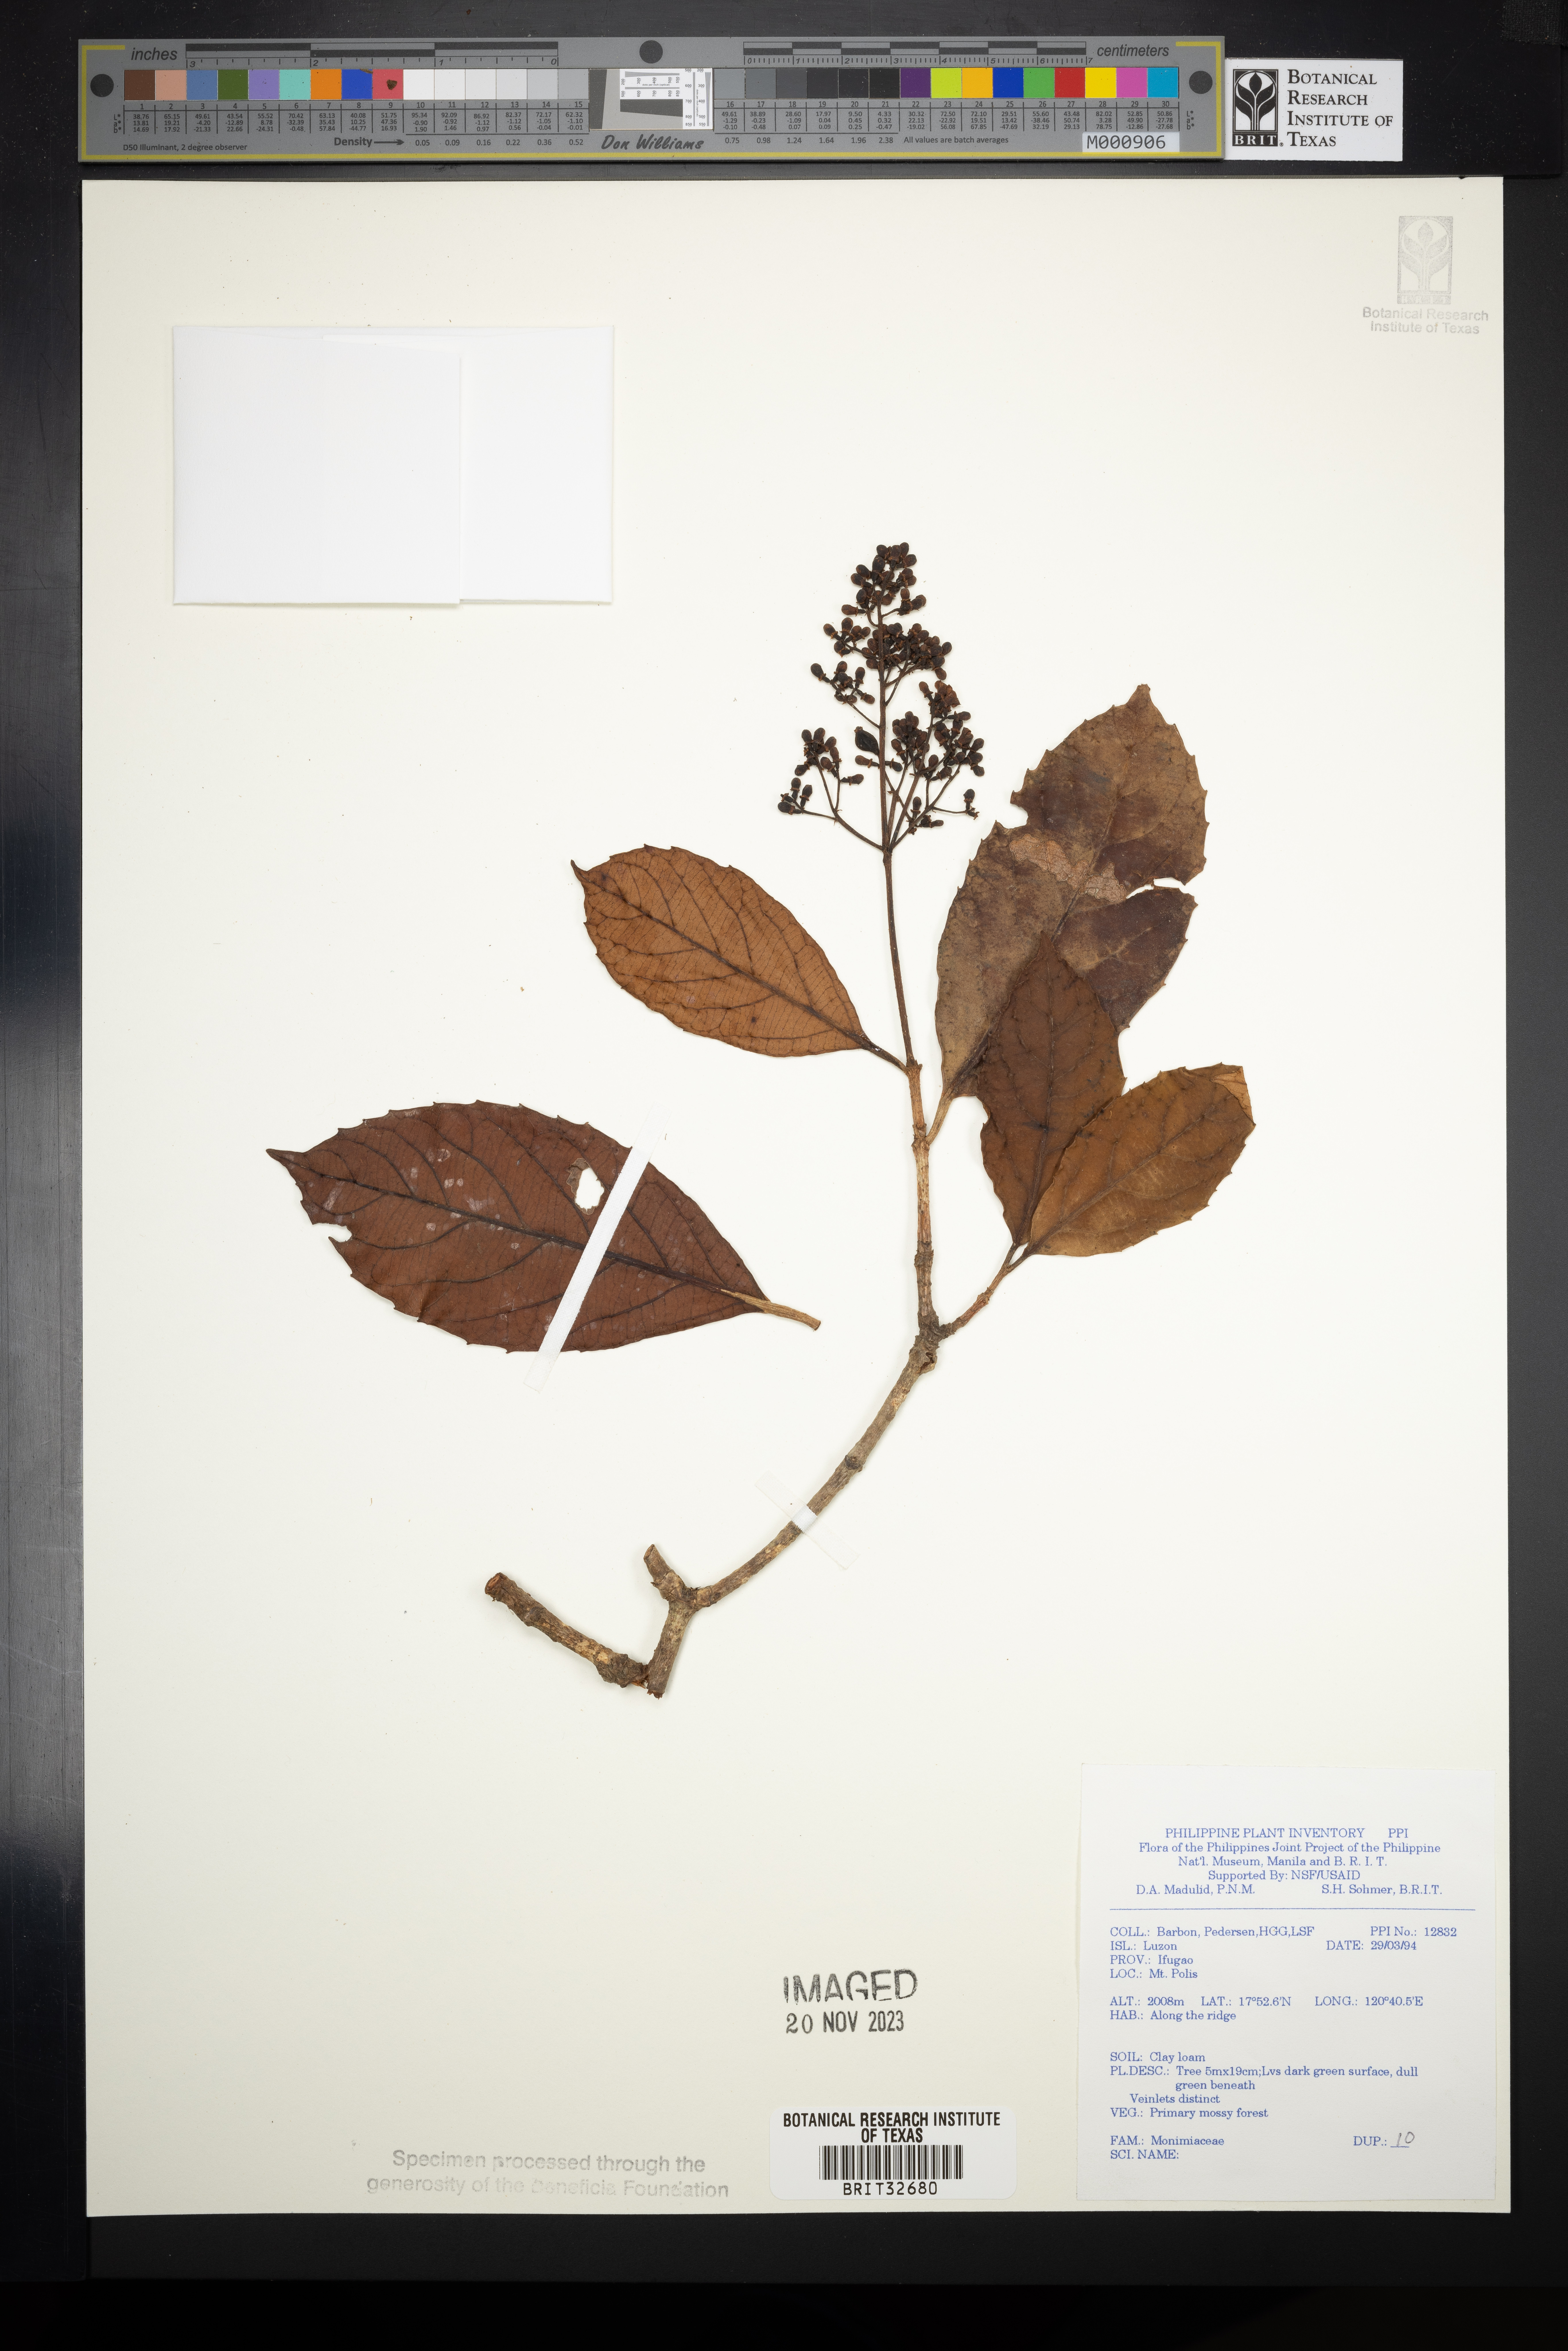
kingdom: Plantae
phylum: Tracheophyta
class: Magnoliopsida
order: Laurales
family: Monimiaceae
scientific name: Monimiaceae
